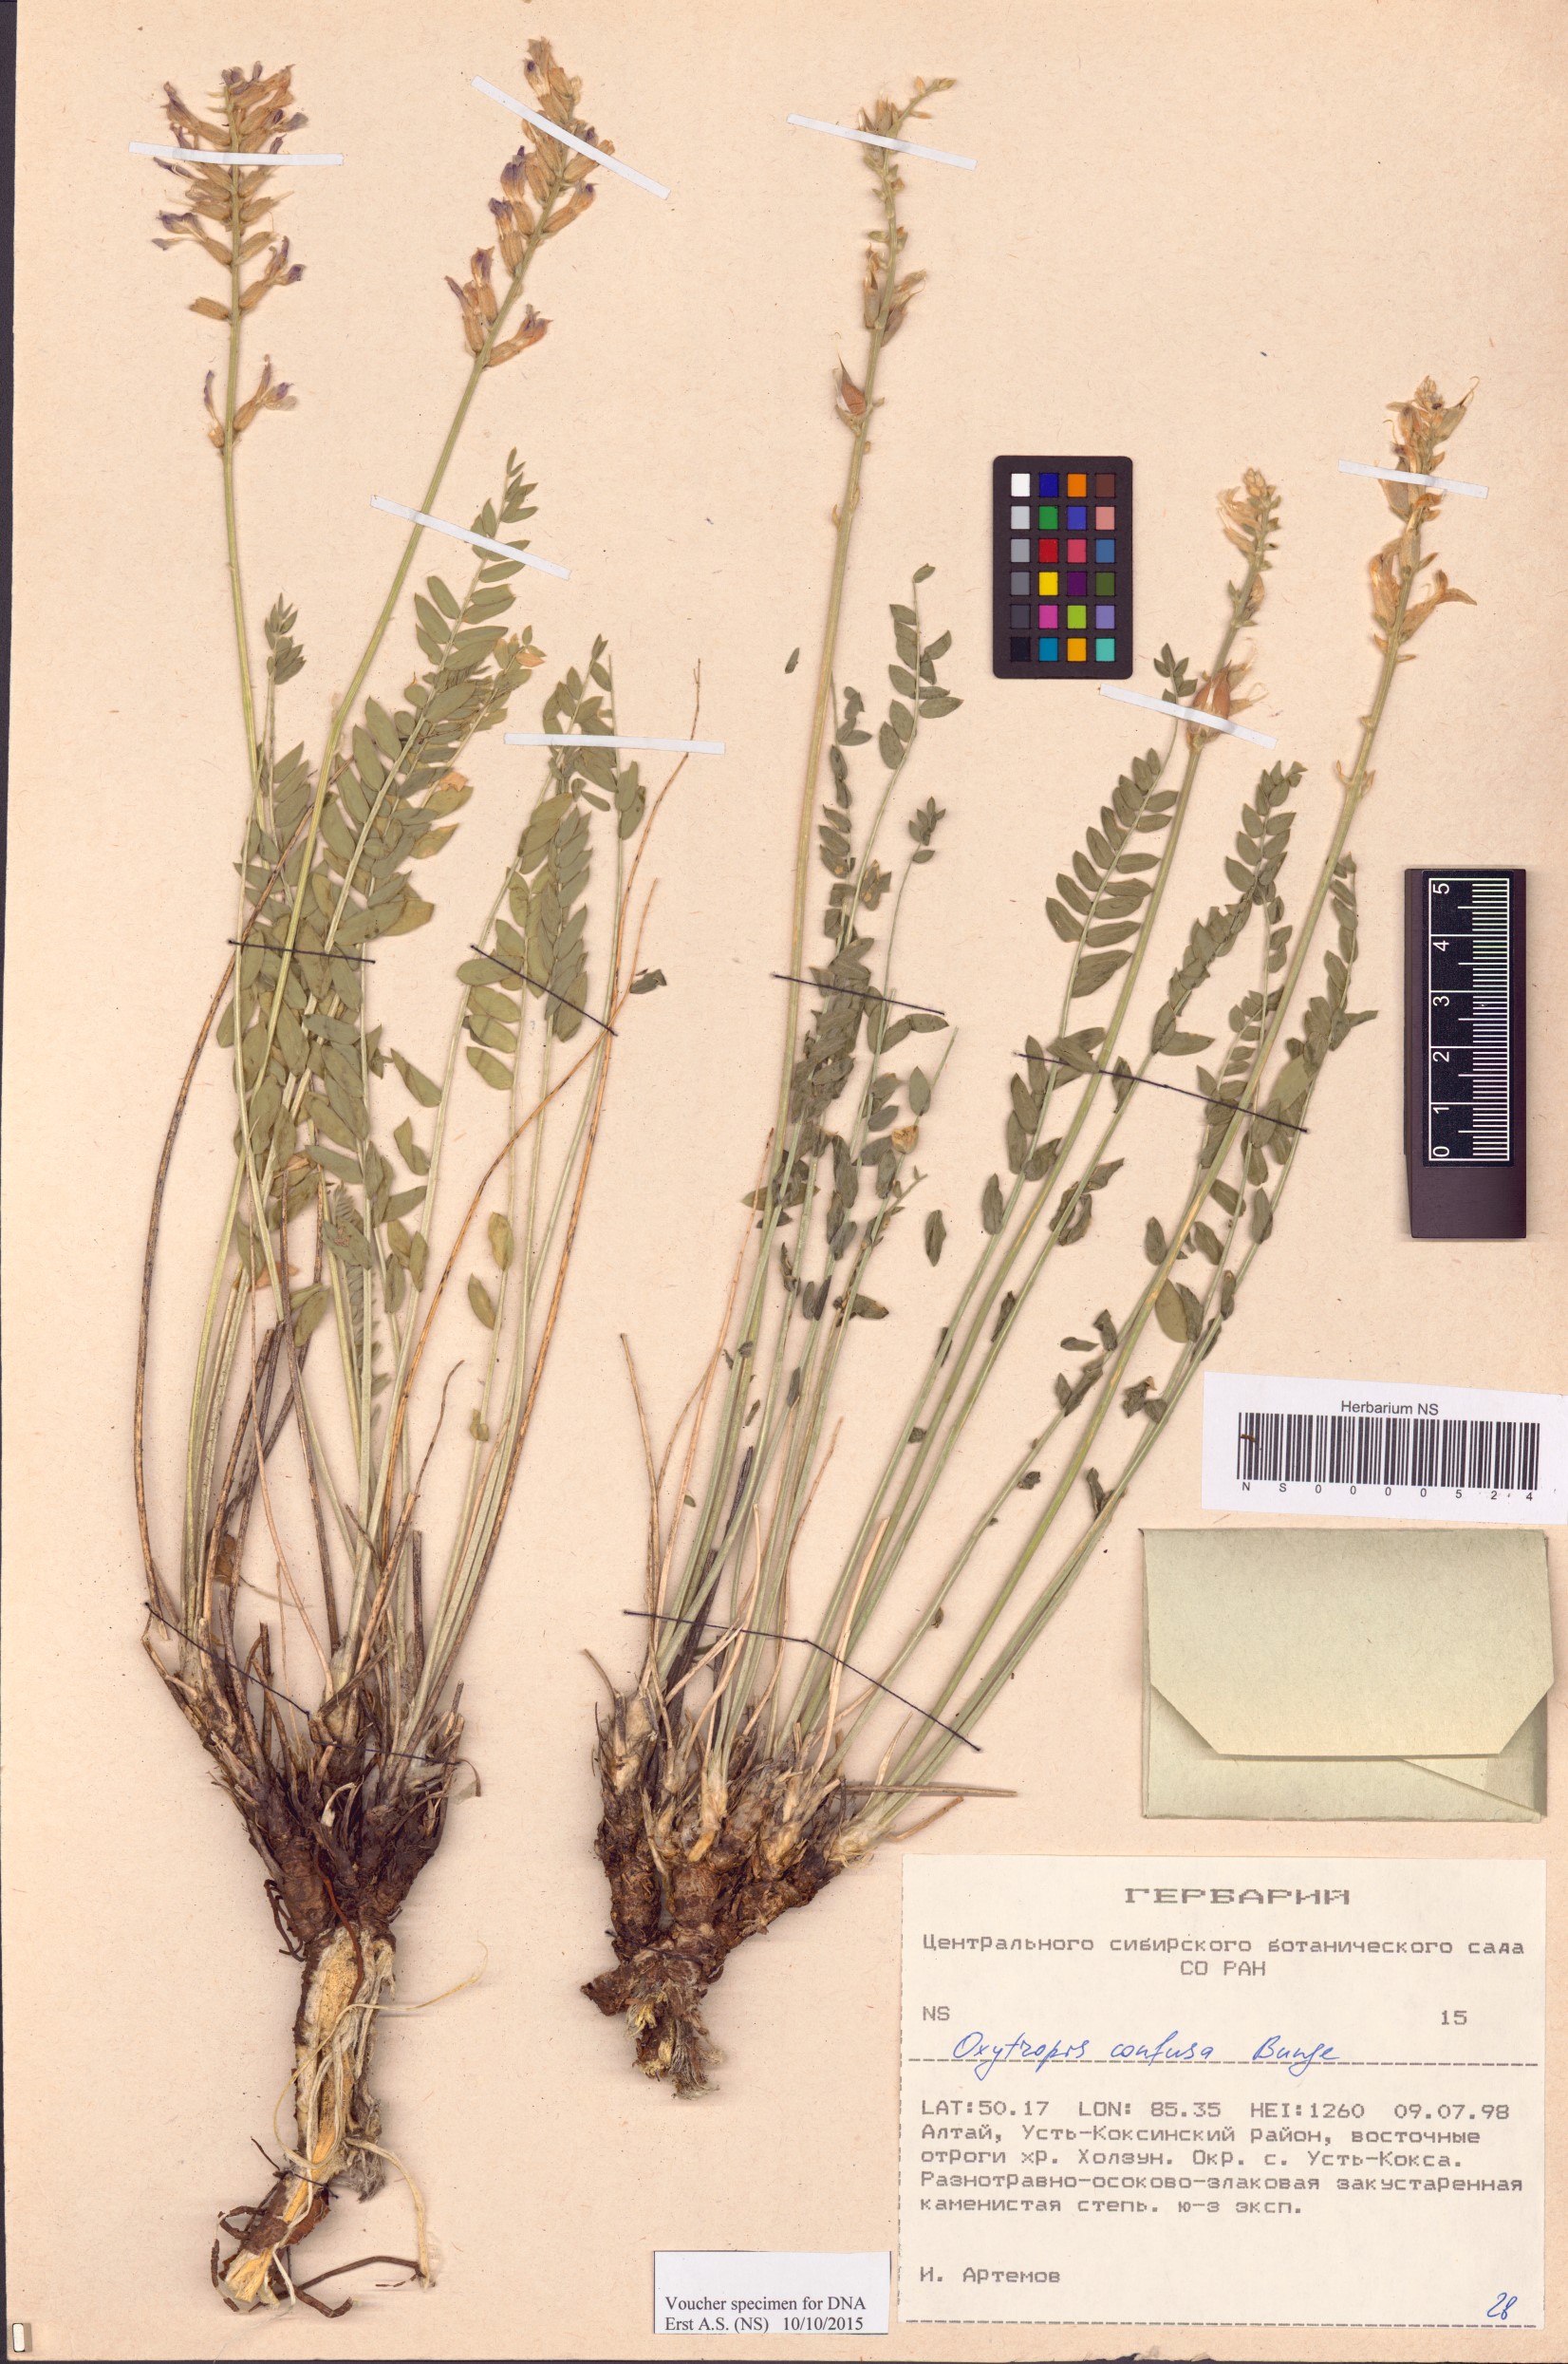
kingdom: Plantae
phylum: Tracheophyta
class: Magnoliopsida
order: Fabales
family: Fabaceae
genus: Oxytropis
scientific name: Oxytropis confusa
